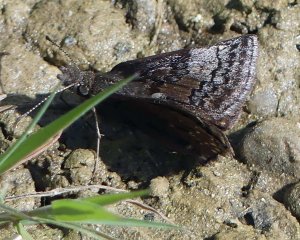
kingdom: Animalia
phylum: Arthropoda
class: Insecta
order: Lepidoptera
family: Hesperiidae
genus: Erynnis
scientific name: Erynnis icelus
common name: Dreamy Duskywing
